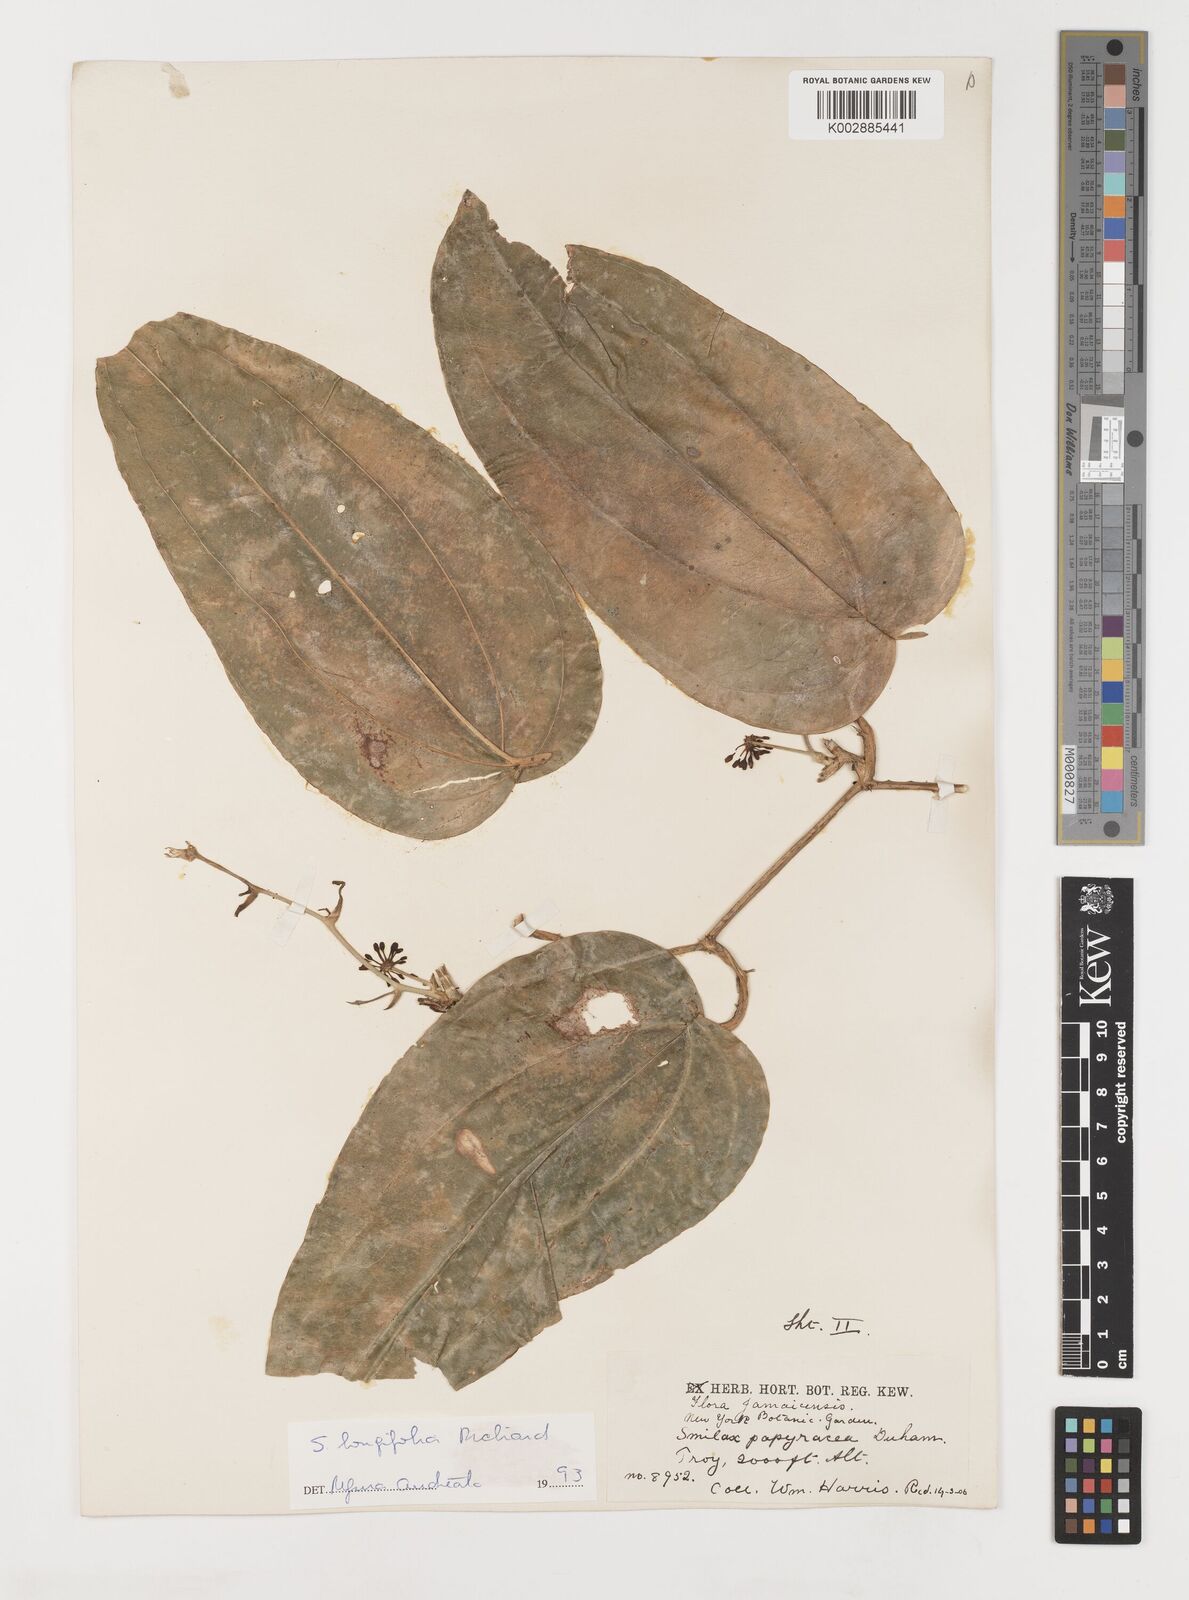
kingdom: Plantae
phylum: Tracheophyta
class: Liliopsida
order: Liliales
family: Smilacaceae
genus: Smilax
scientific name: Smilax longifolia
